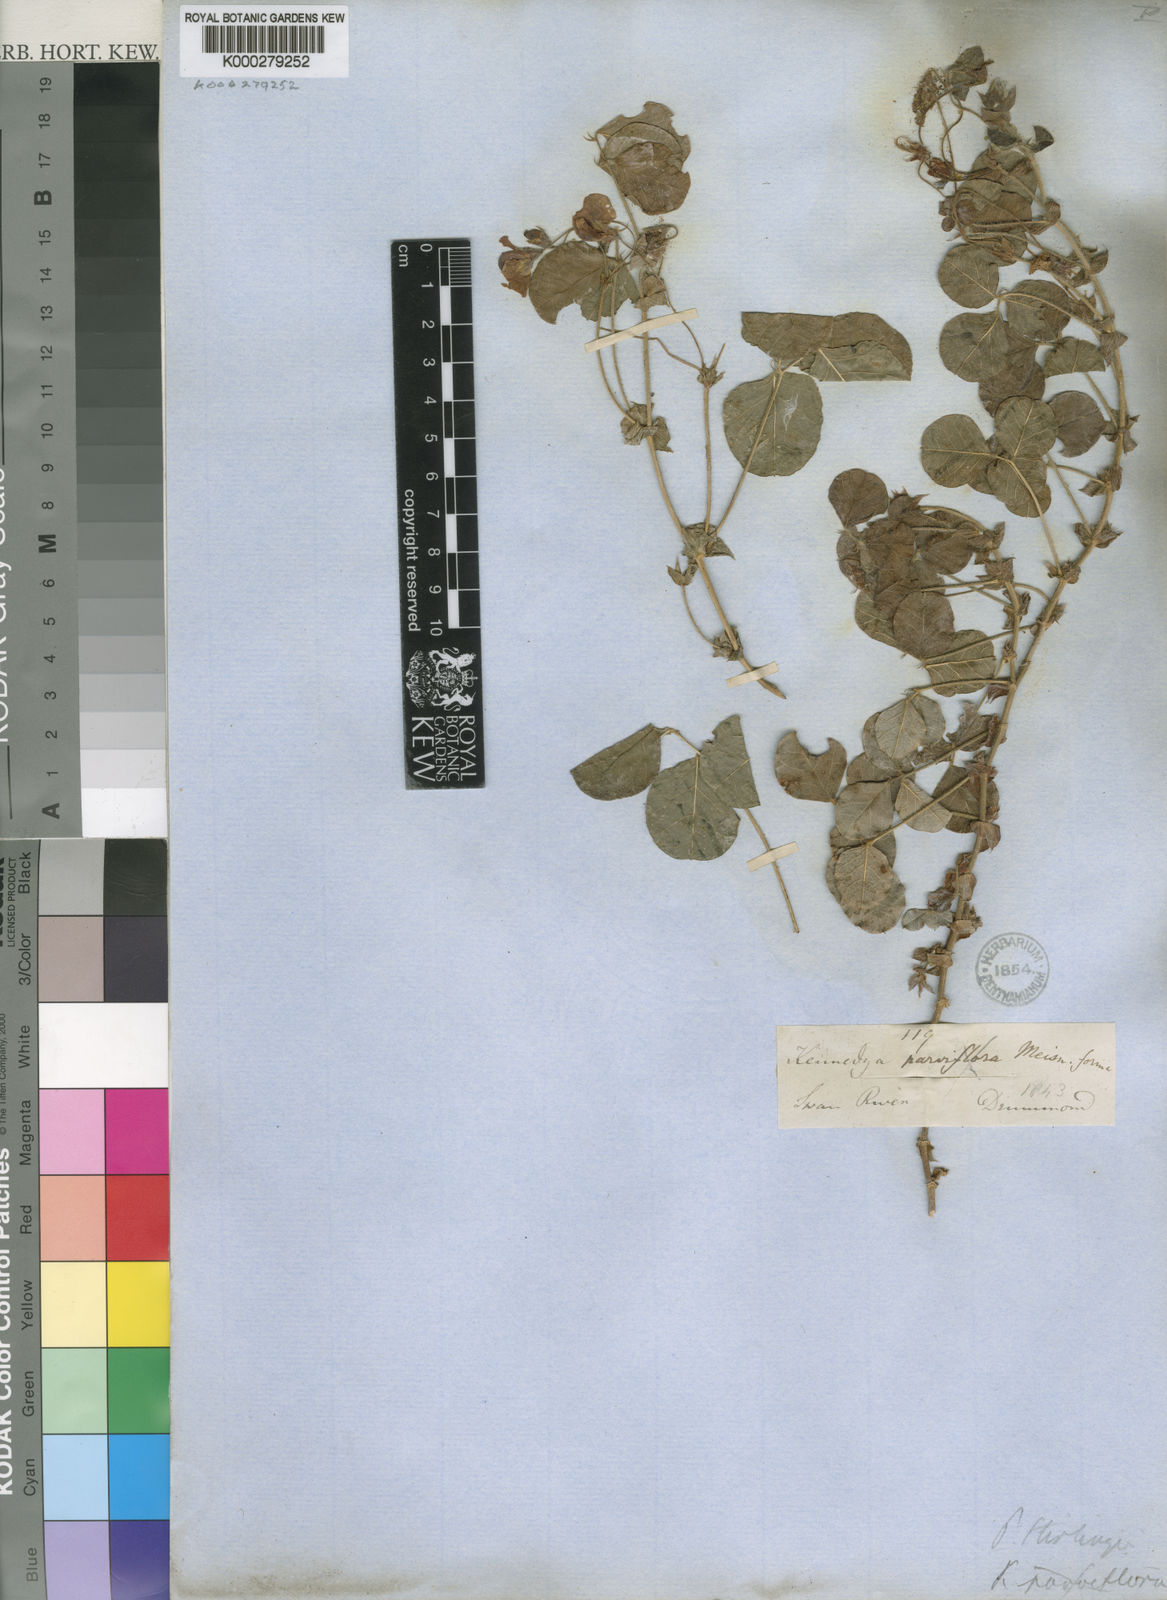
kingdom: Plantae
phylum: Tracheophyta
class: Magnoliopsida
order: Fabales
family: Fabaceae
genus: Kennedia
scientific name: Kennedia parviflora
